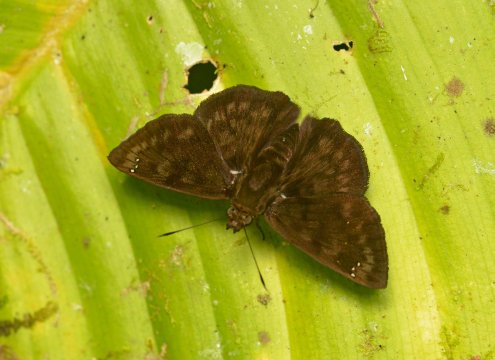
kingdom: Animalia
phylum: Arthropoda
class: Insecta
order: Lepidoptera
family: Hesperiidae
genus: Nisoniades
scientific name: Nisoniades bessus
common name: Godma Tufted-Skipper
